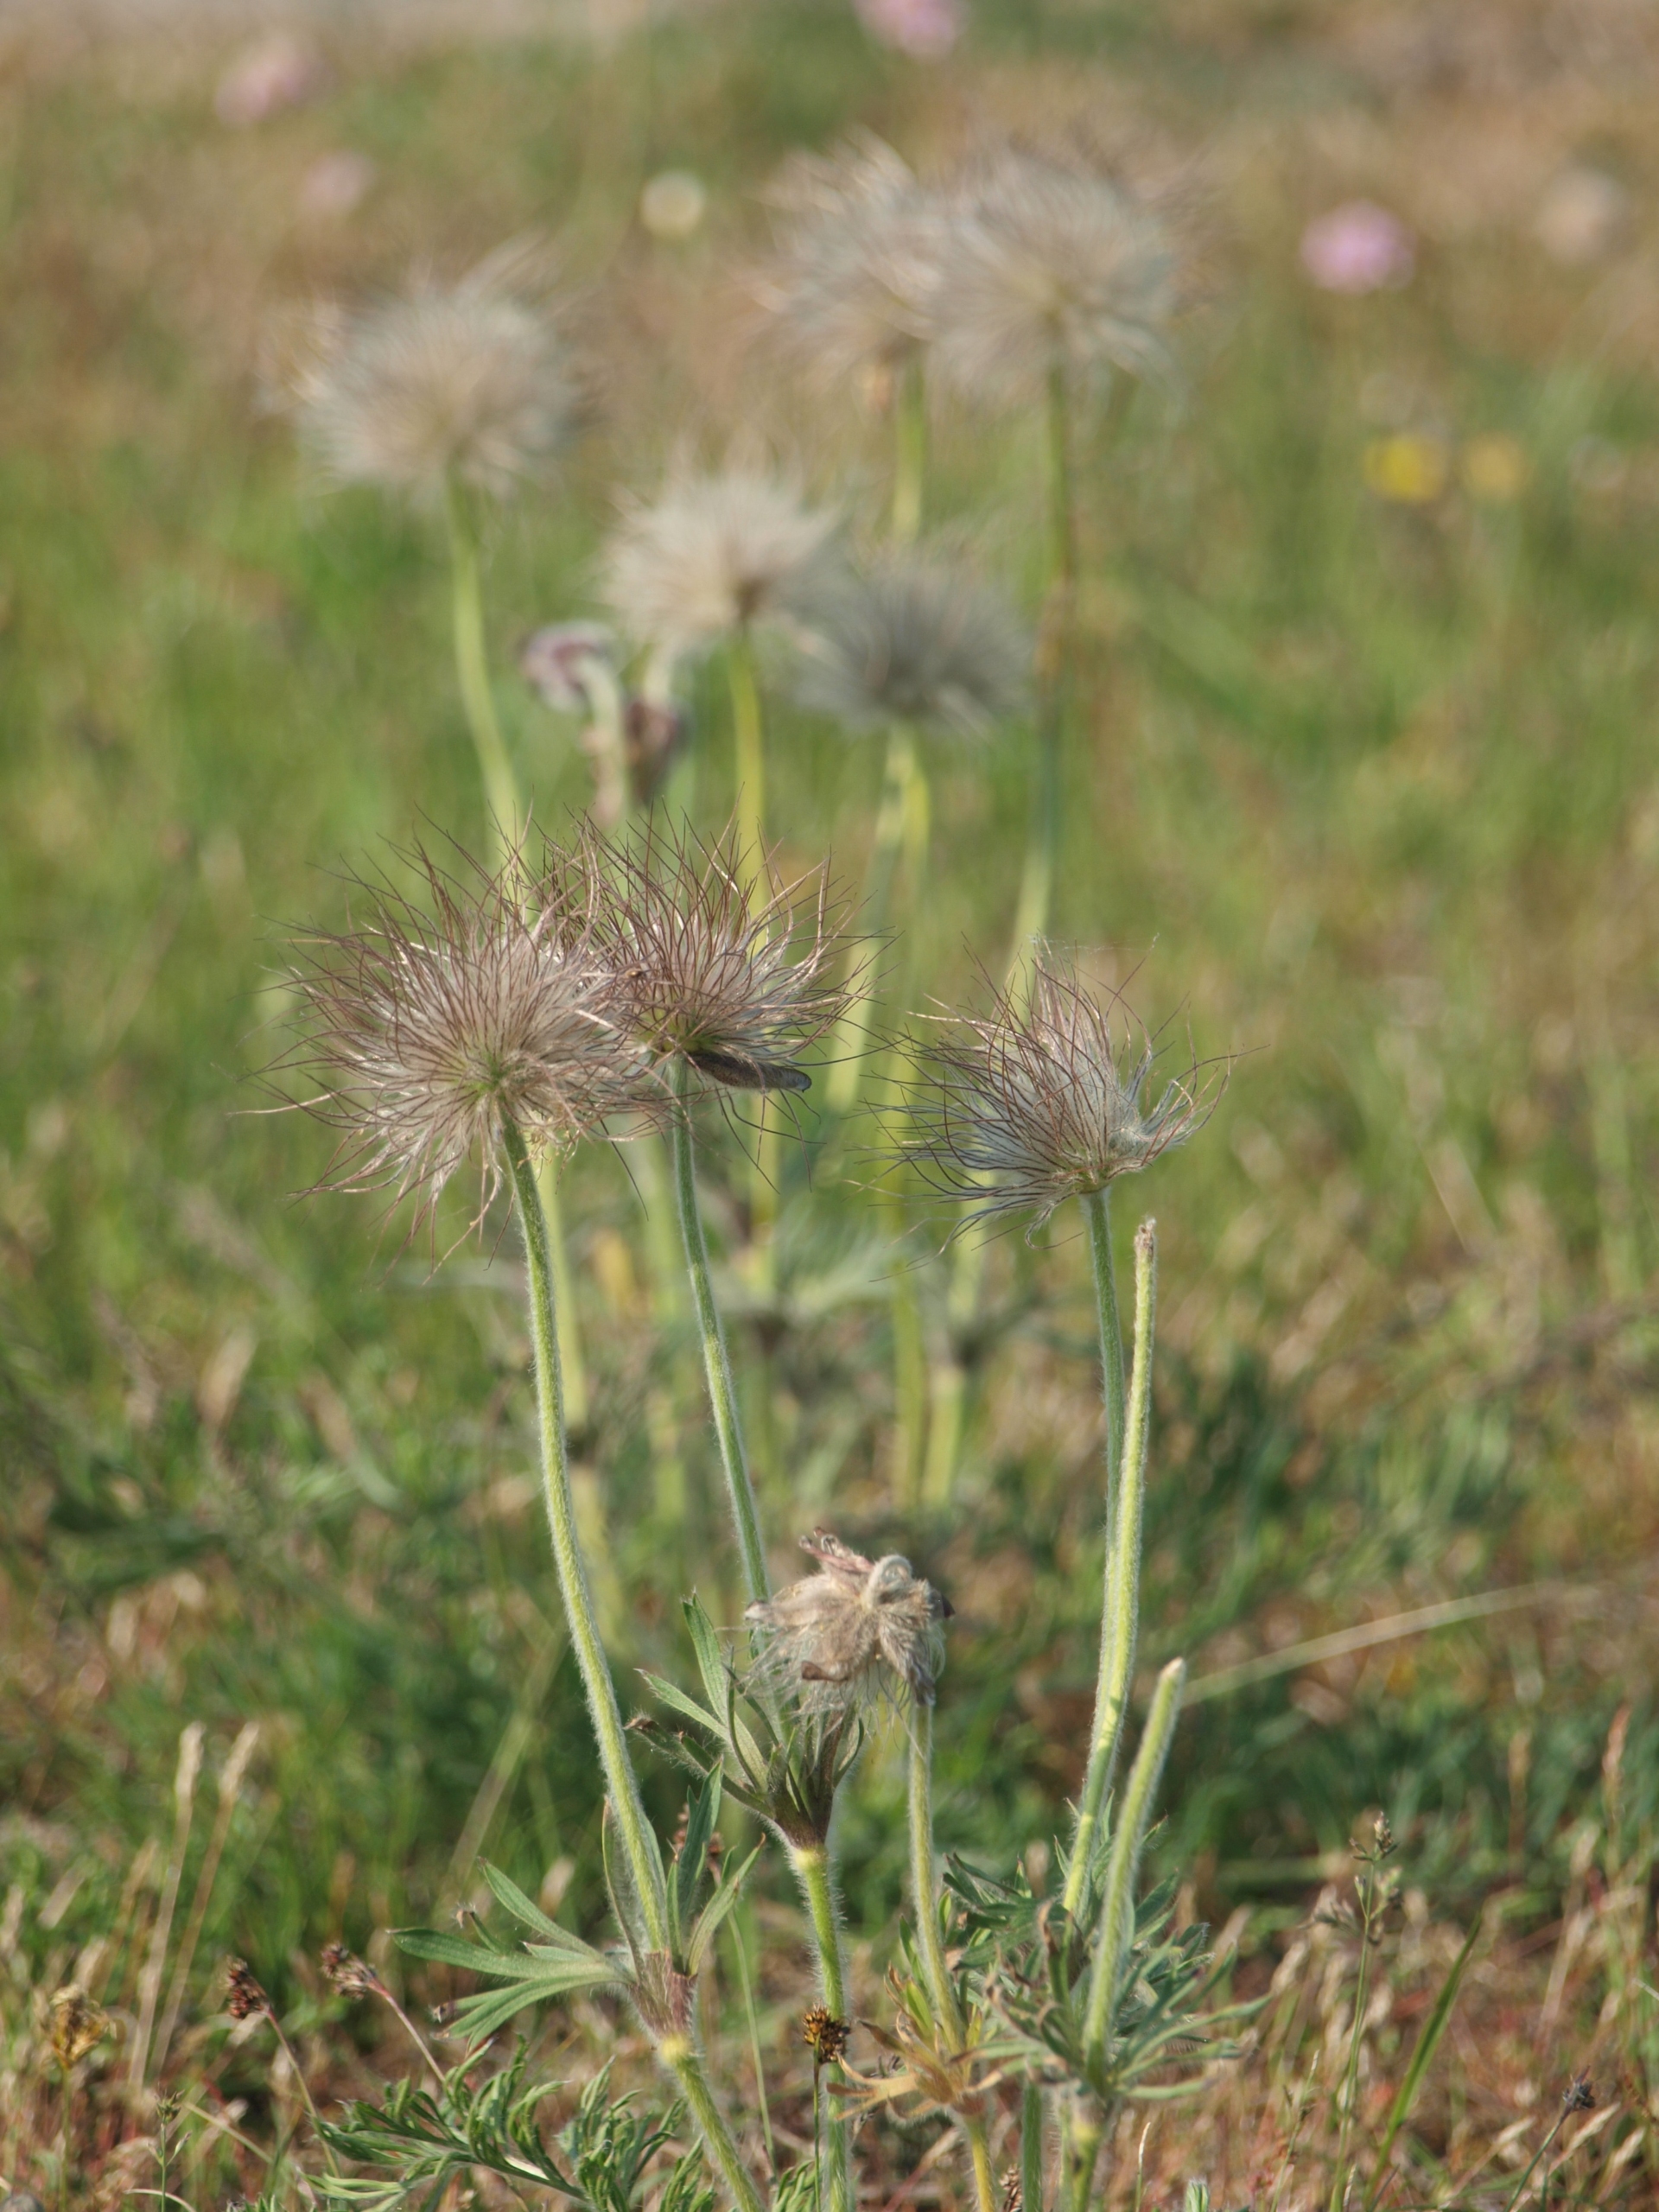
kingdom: Plantae
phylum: Tracheophyta
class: Magnoliopsida
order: Ranunculales
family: Ranunculaceae
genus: Pulsatilla
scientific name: Pulsatilla pratensis
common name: Nikkende kobjælde
